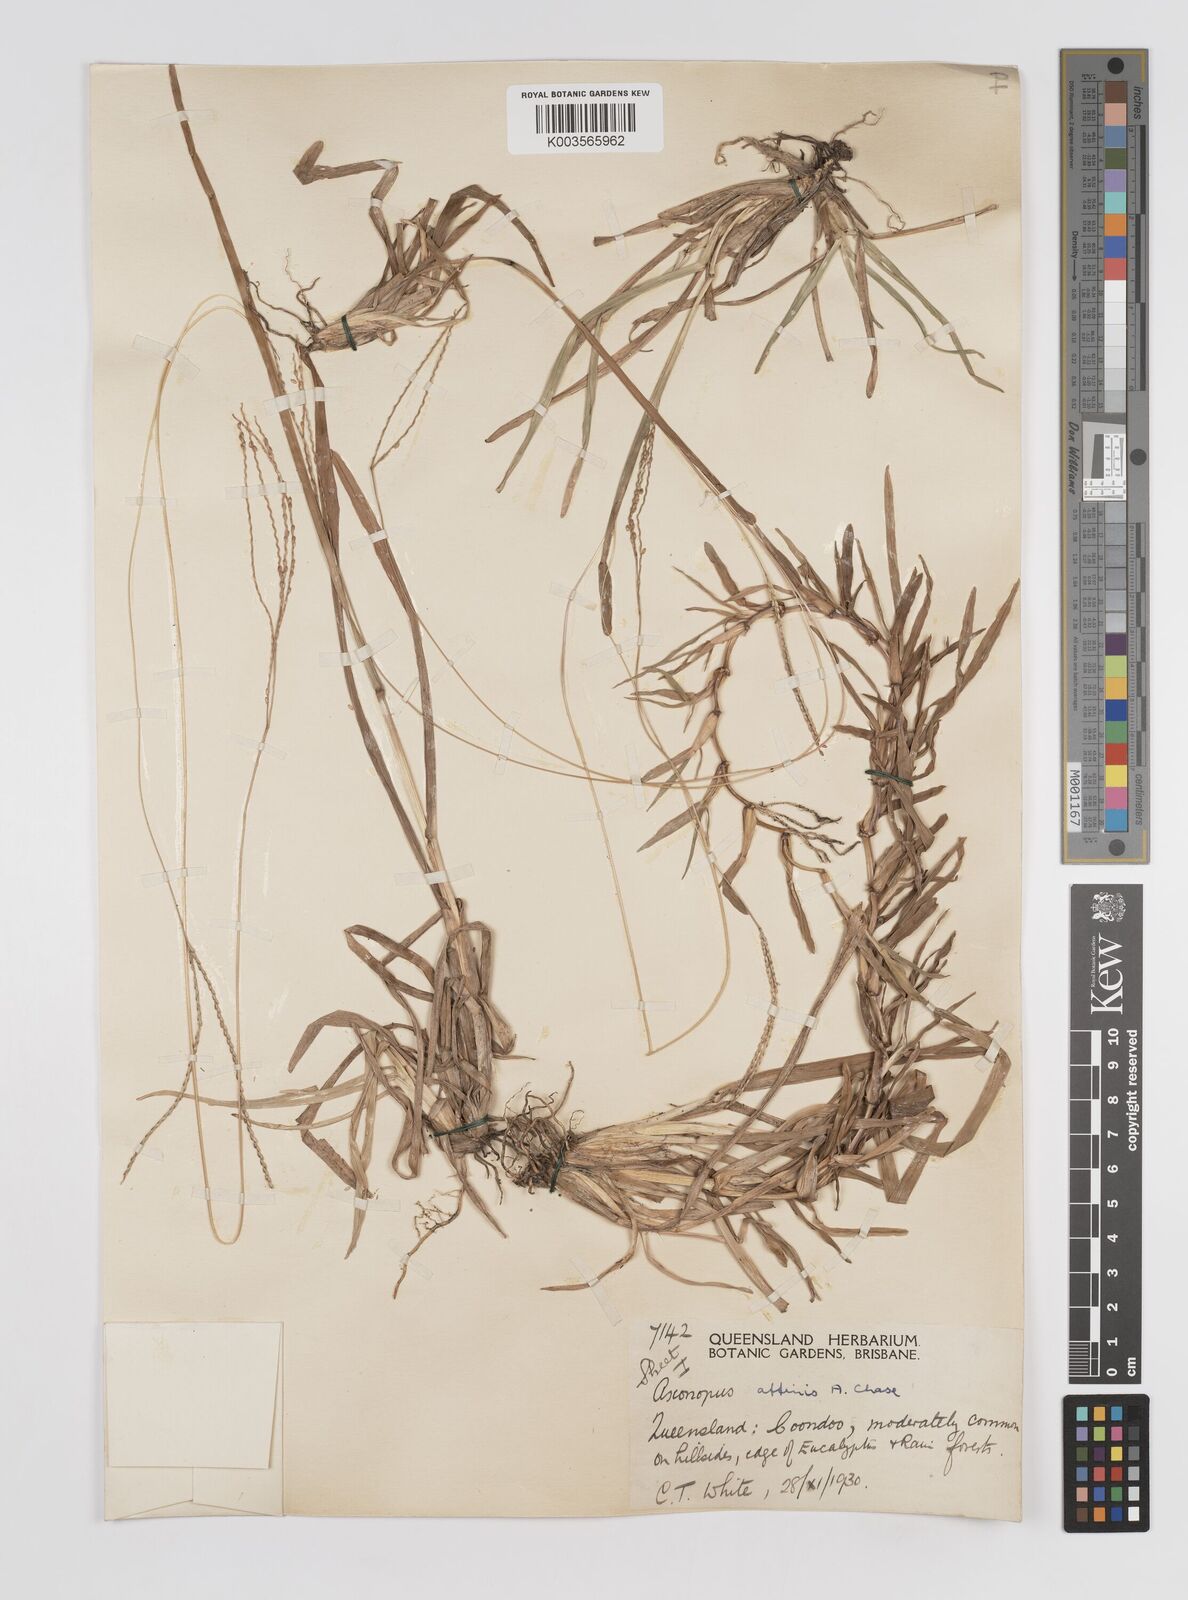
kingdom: Plantae
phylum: Tracheophyta
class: Liliopsida
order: Poales
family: Poaceae
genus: Axonopus
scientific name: Axonopus fissifolius
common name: Common carpetgrass
